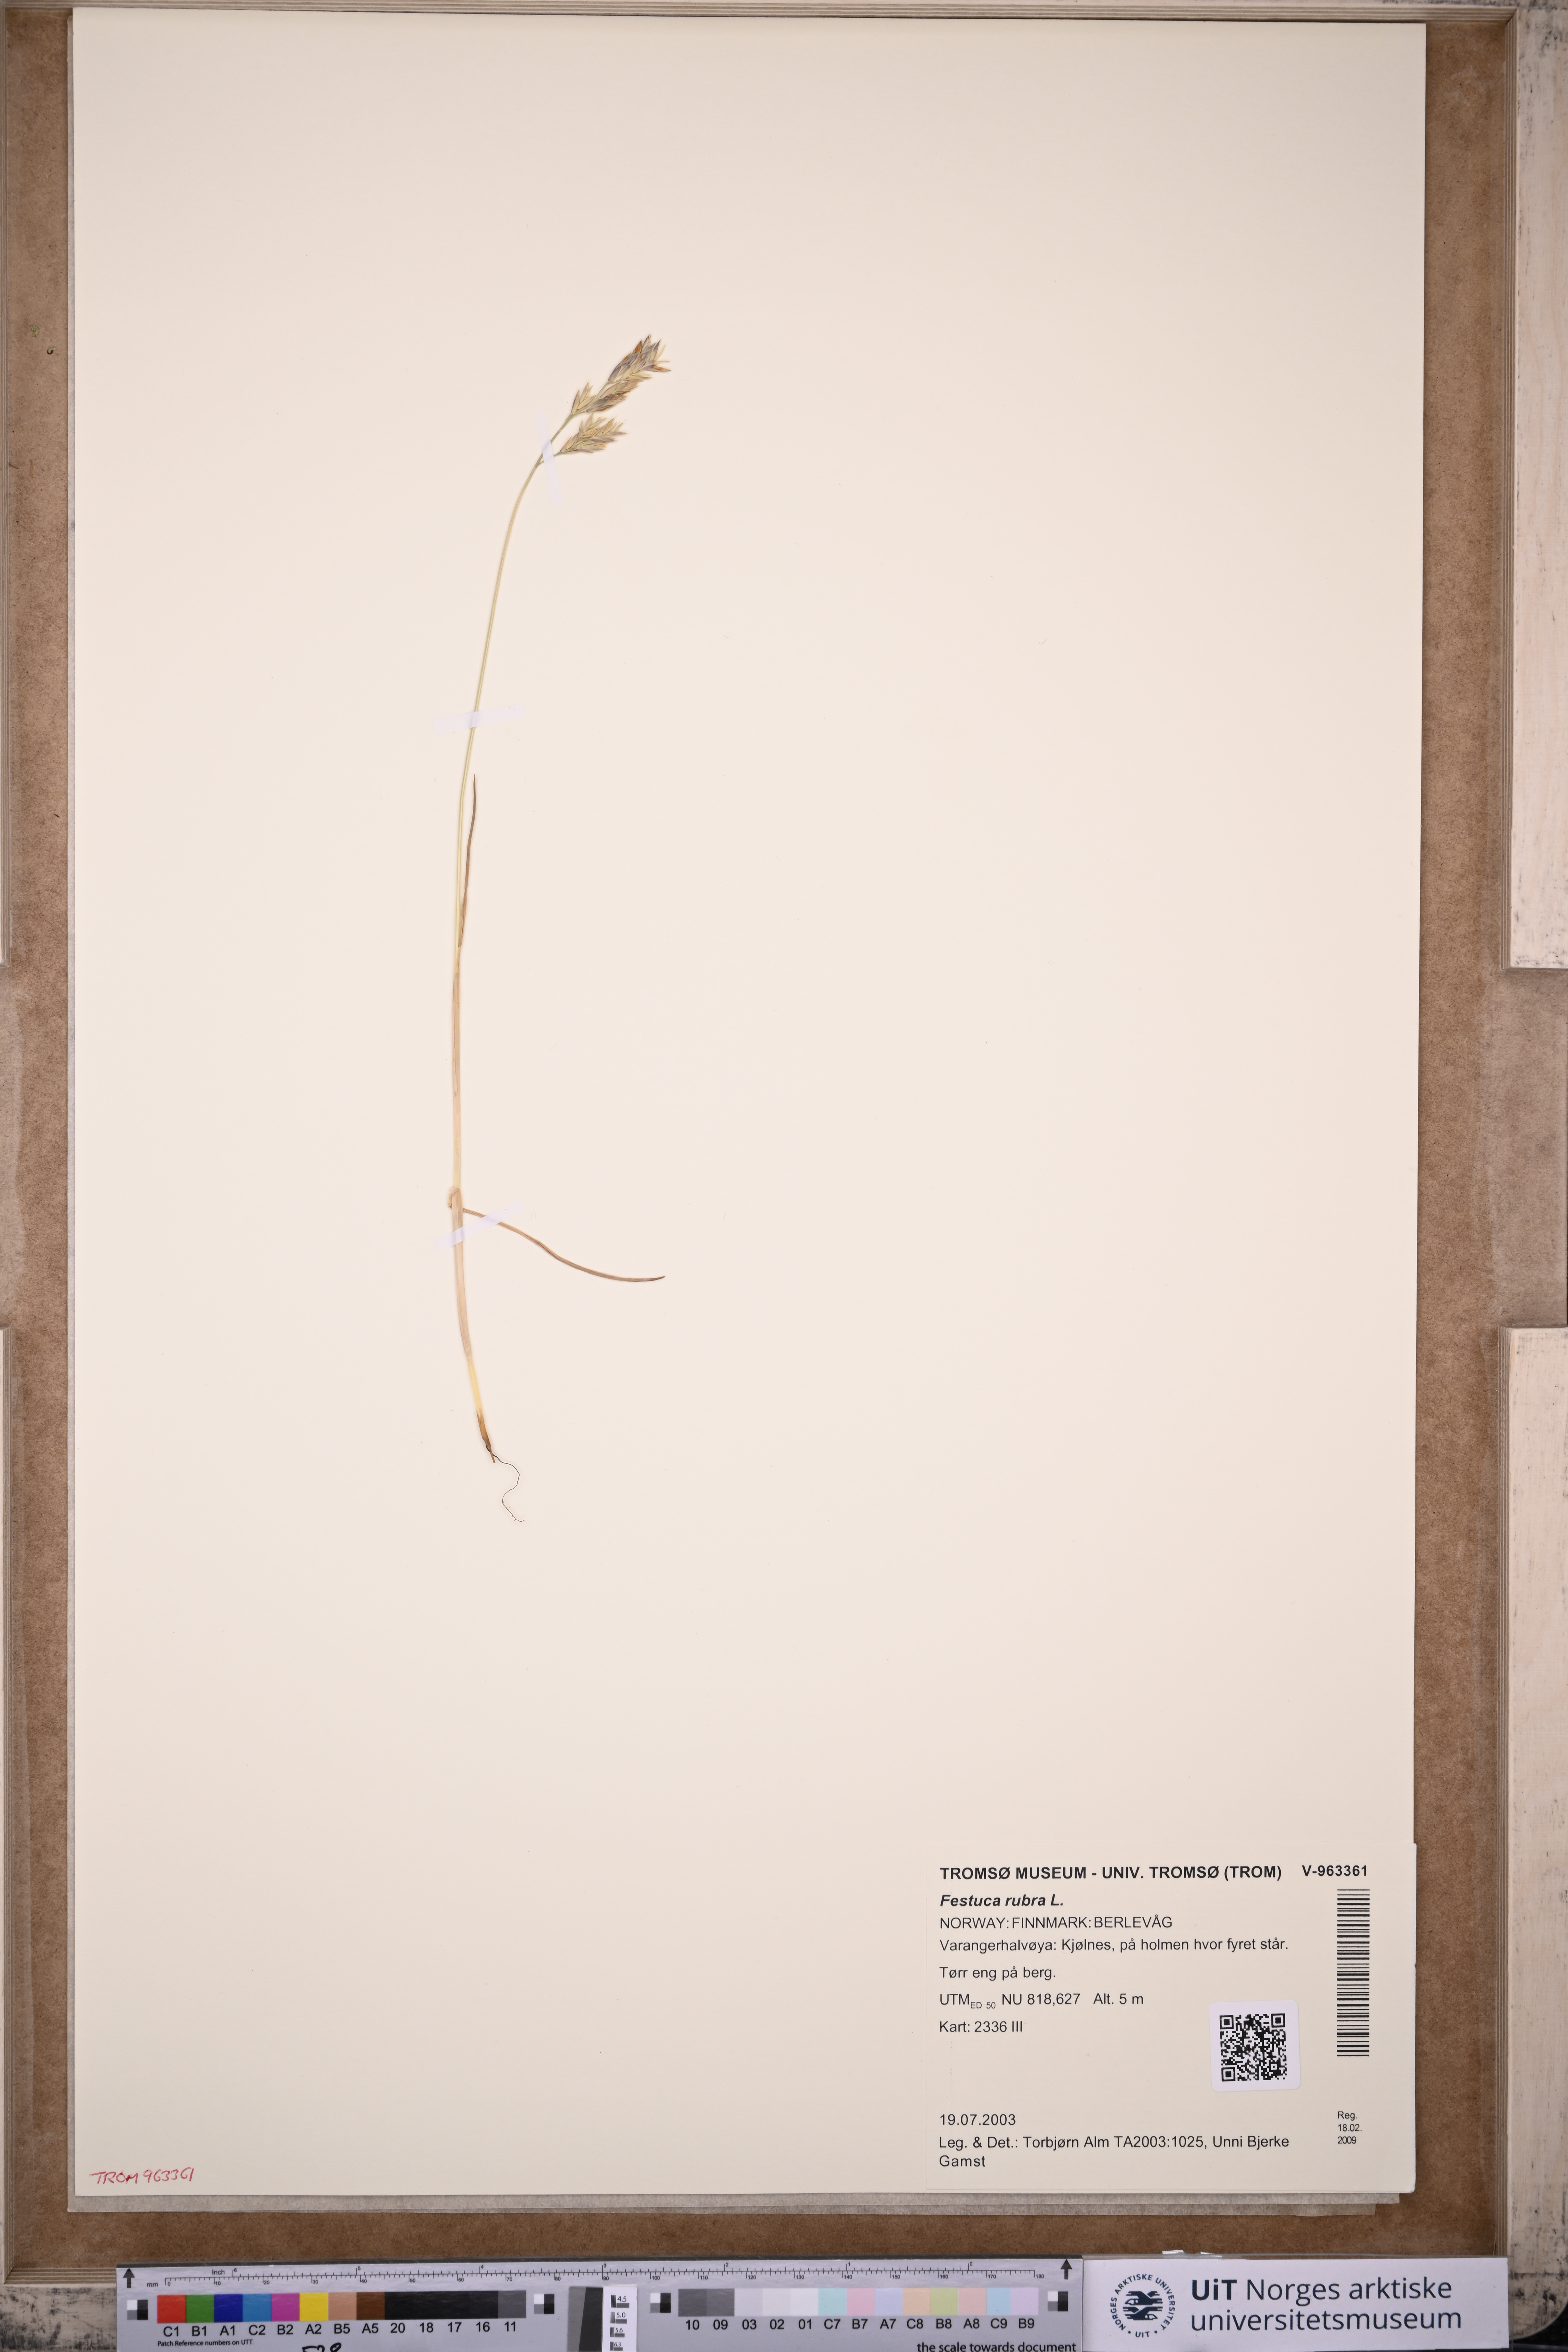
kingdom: Plantae
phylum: Tracheophyta
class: Liliopsida
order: Poales
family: Poaceae
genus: Festuca
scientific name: Festuca rubra
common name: Red fescue
